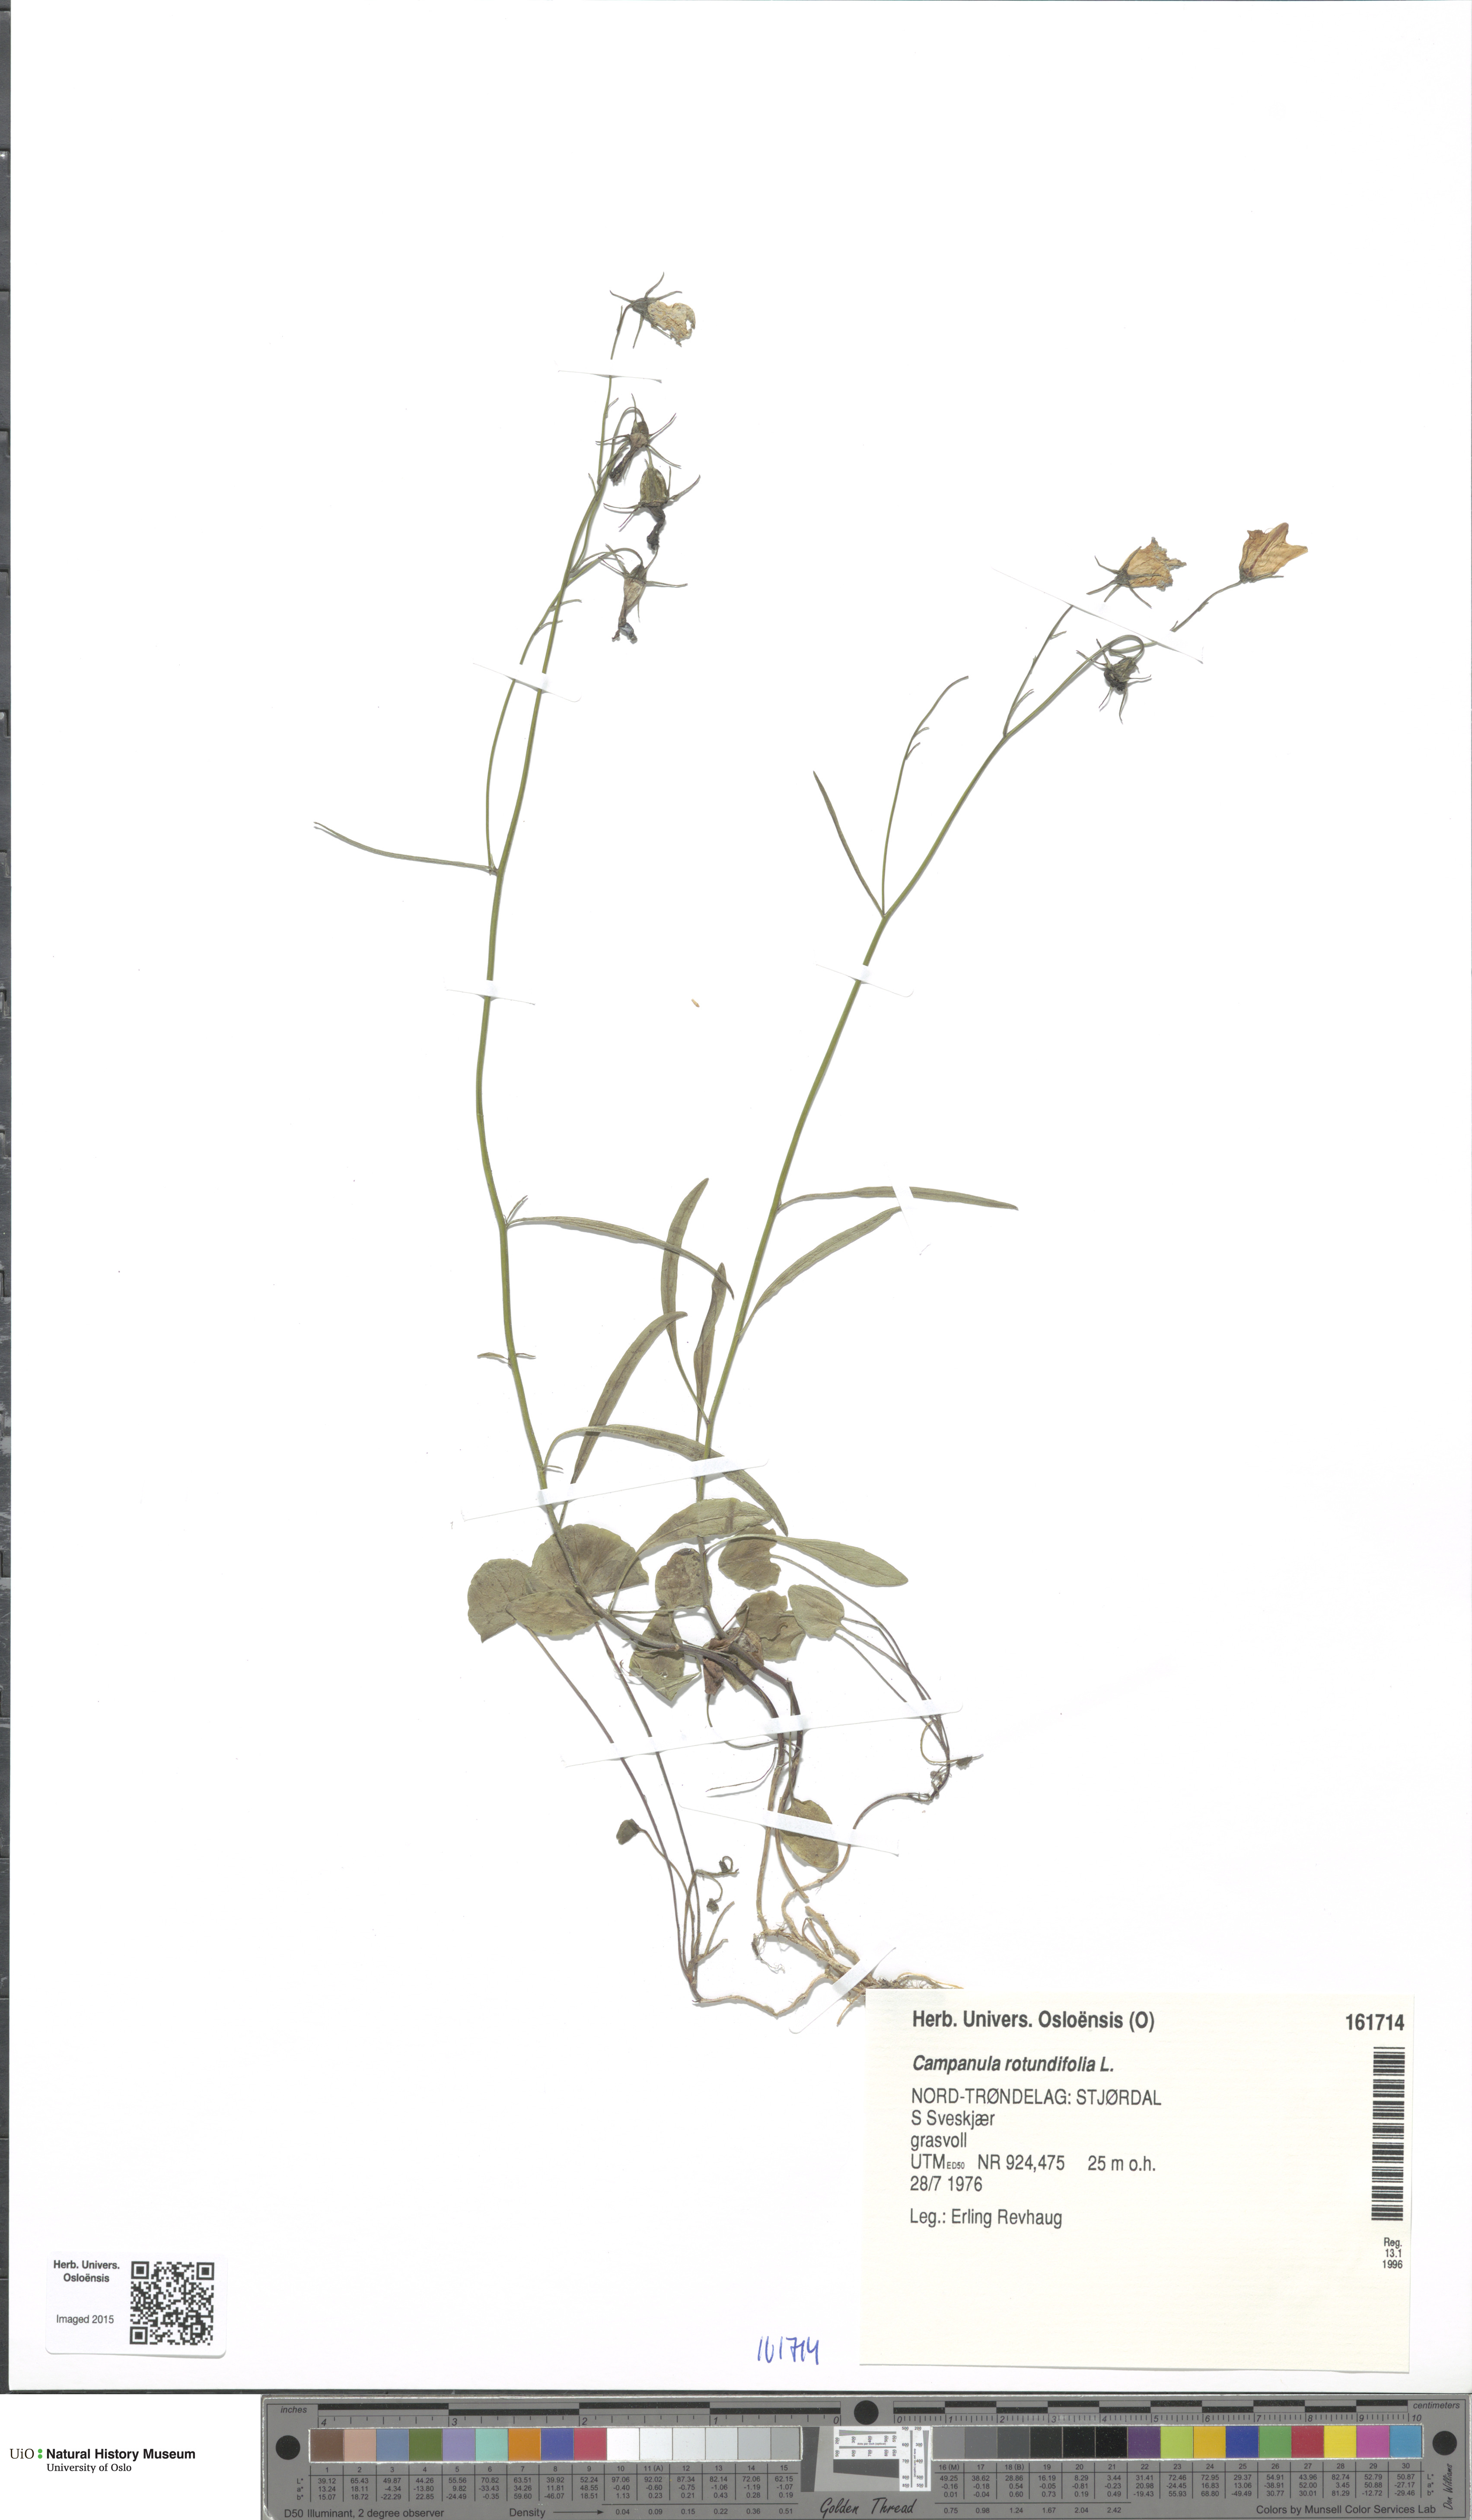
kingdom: Plantae
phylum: Tracheophyta
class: Magnoliopsida
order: Asterales
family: Campanulaceae
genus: Campanula
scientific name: Campanula rotundifolia
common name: Harebell
